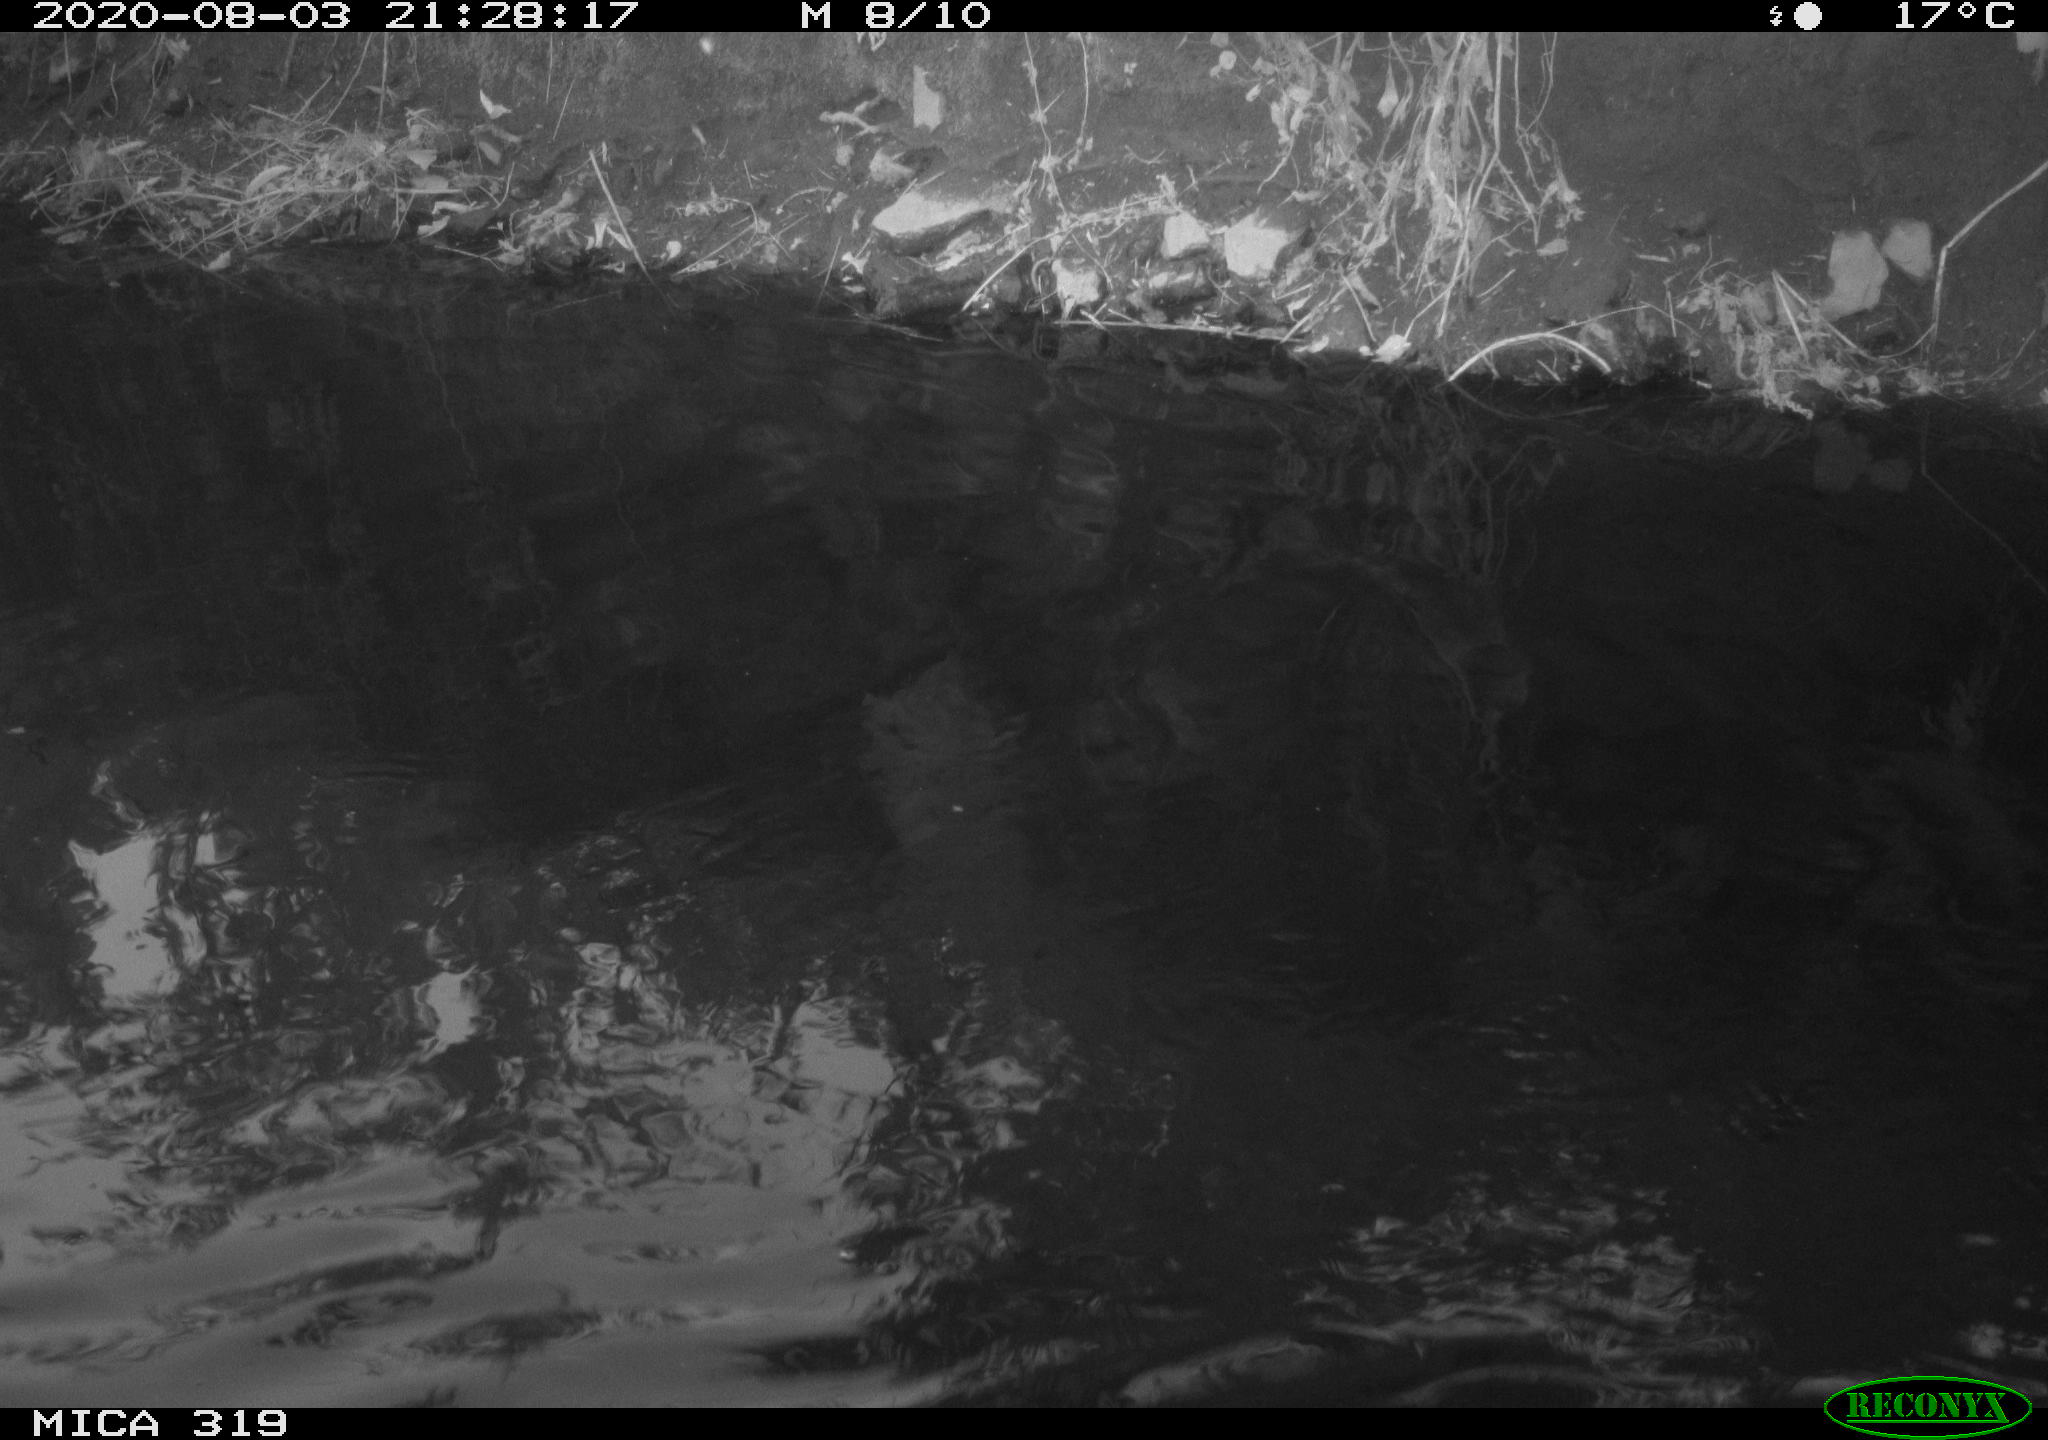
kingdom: Animalia
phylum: Chordata
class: Aves
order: Anseriformes
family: Anatidae
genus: Anas
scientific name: Anas platyrhynchos
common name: Mallard
